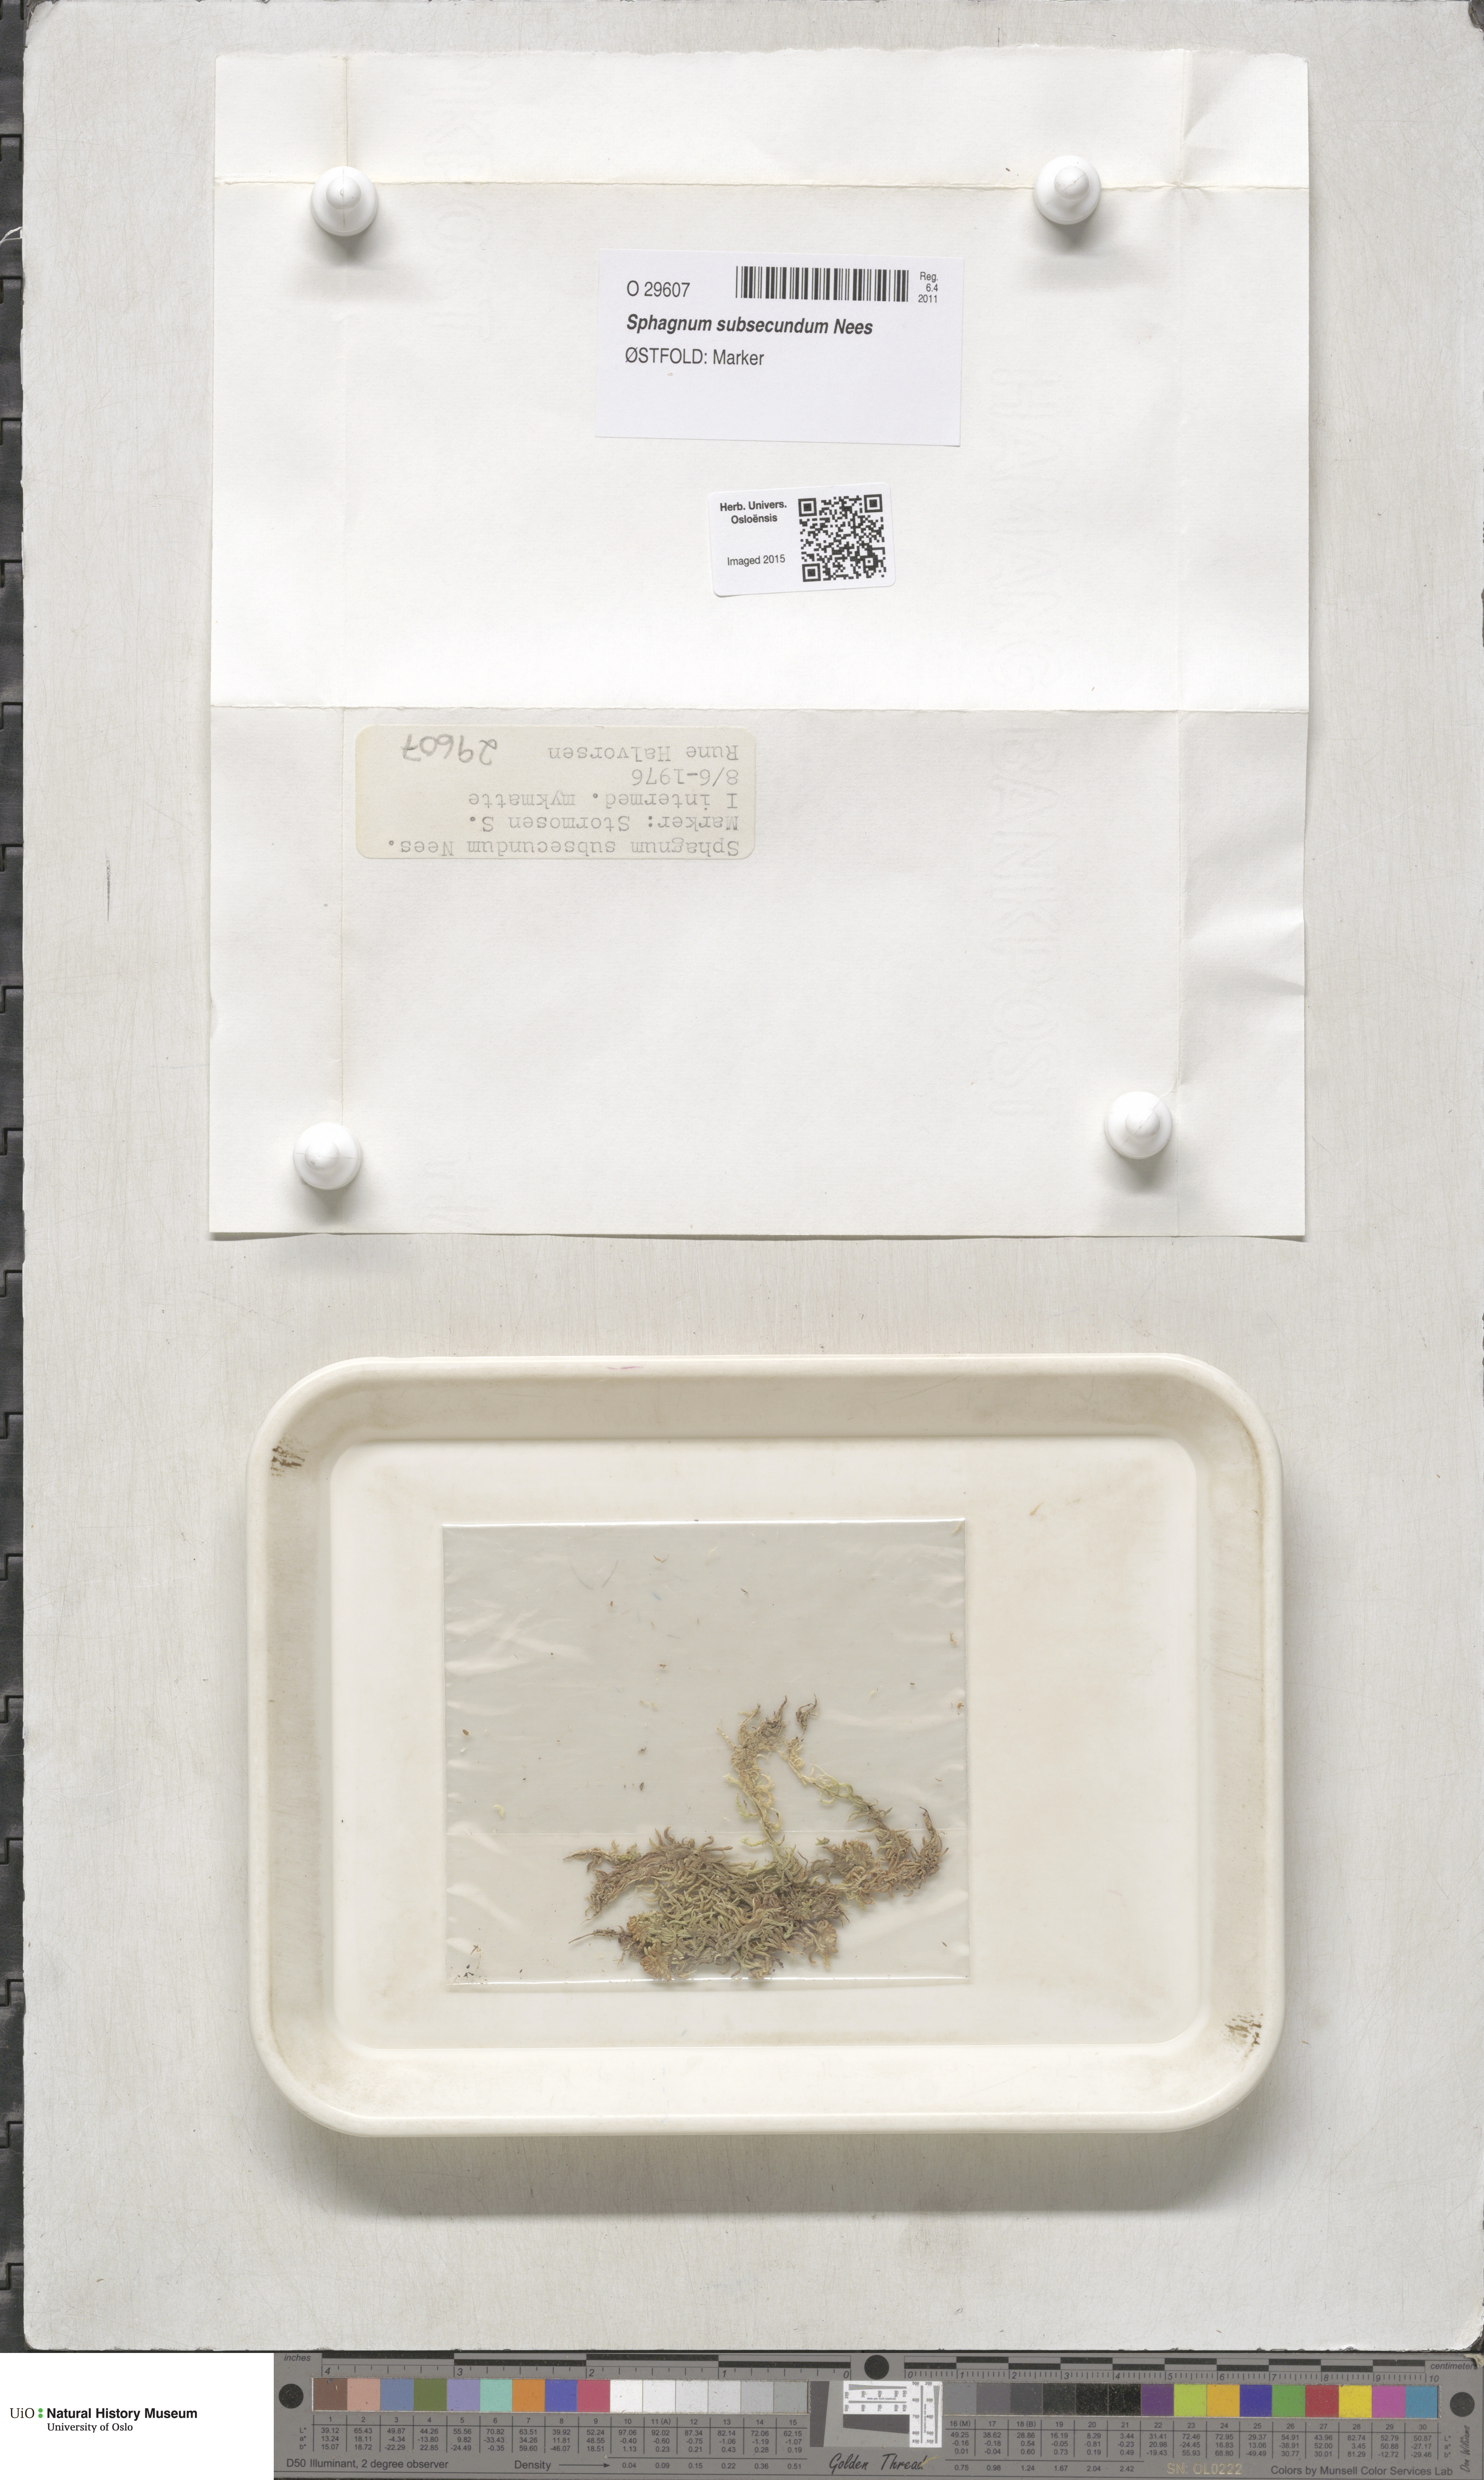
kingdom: Plantae
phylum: Bryophyta
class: Sphagnopsida
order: Sphagnales
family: Sphagnaceae
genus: Sphagnum
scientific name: Sphagnum subsecundum
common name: Orange peat moss
